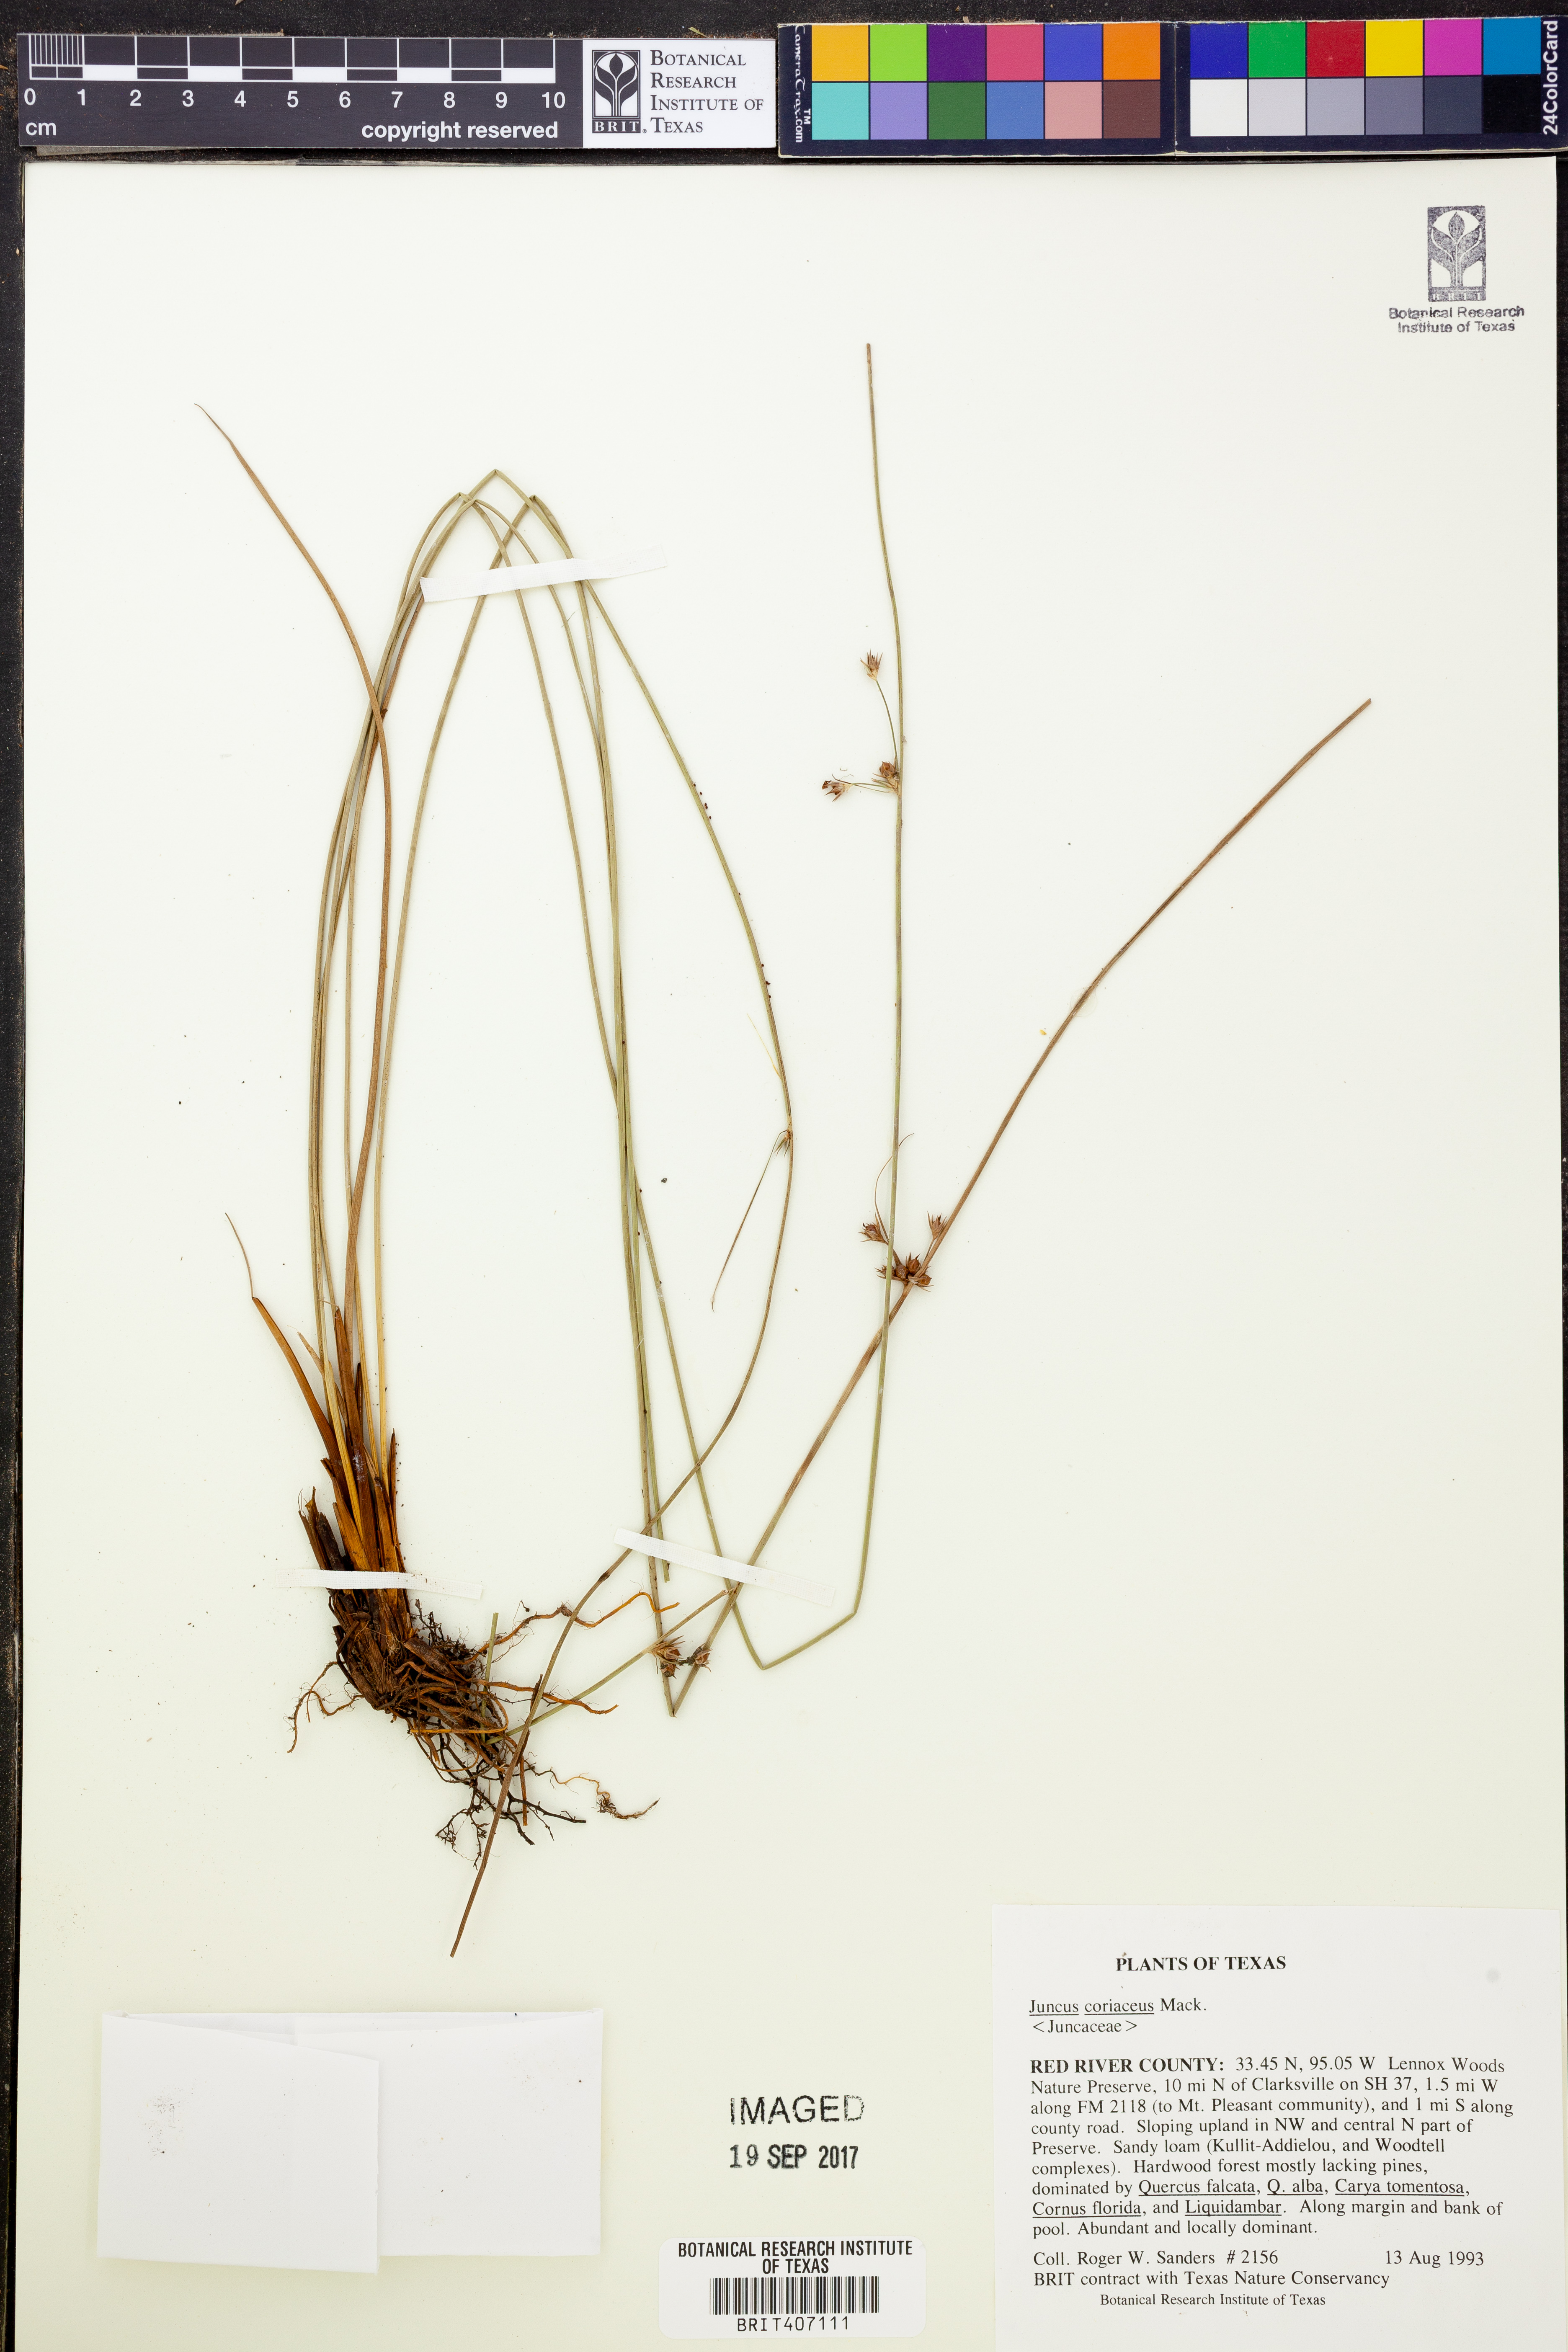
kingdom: Plantae
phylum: Tracheophyta
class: Liliopsida
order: Poales
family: Juncaceae
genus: Juncus
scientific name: Juncus coriaceus
